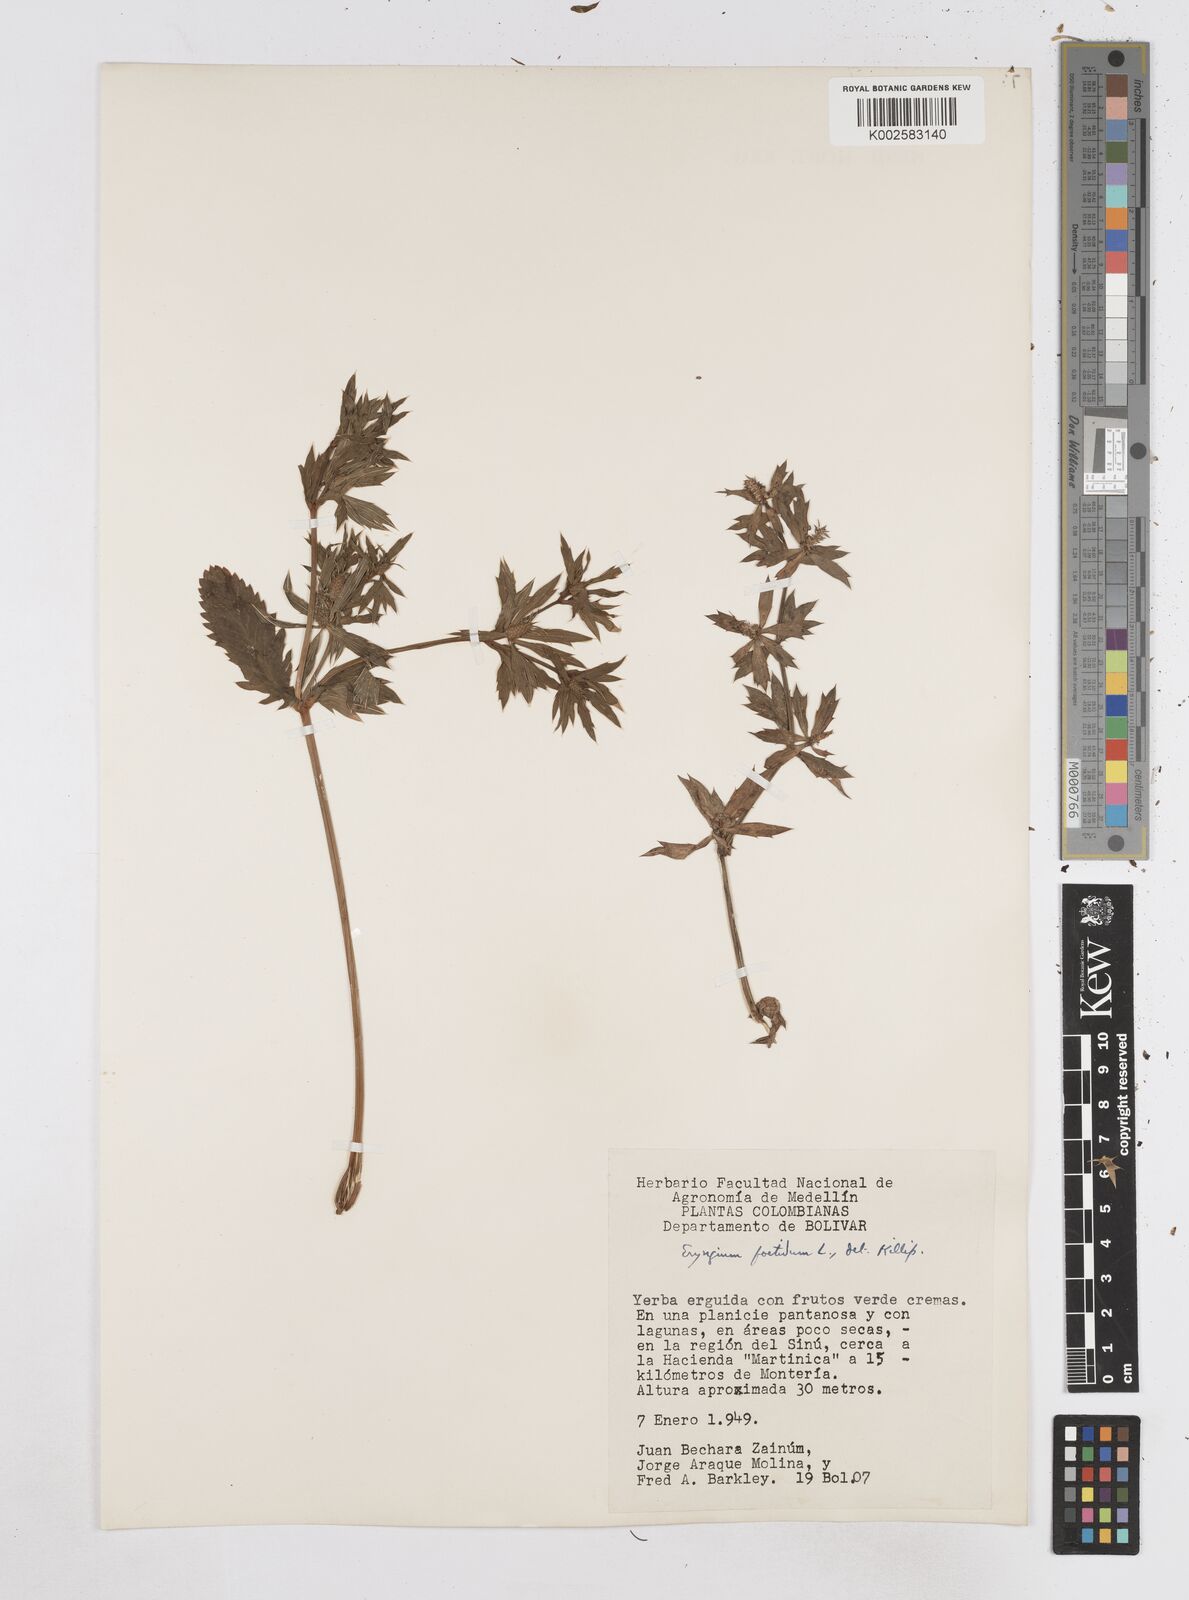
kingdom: Plantae
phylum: Tracheophyta
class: Magnoliopsida
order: Apiales
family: Apiaceae
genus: Eryngium
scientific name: Eryngium foetidum
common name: Fitweed
